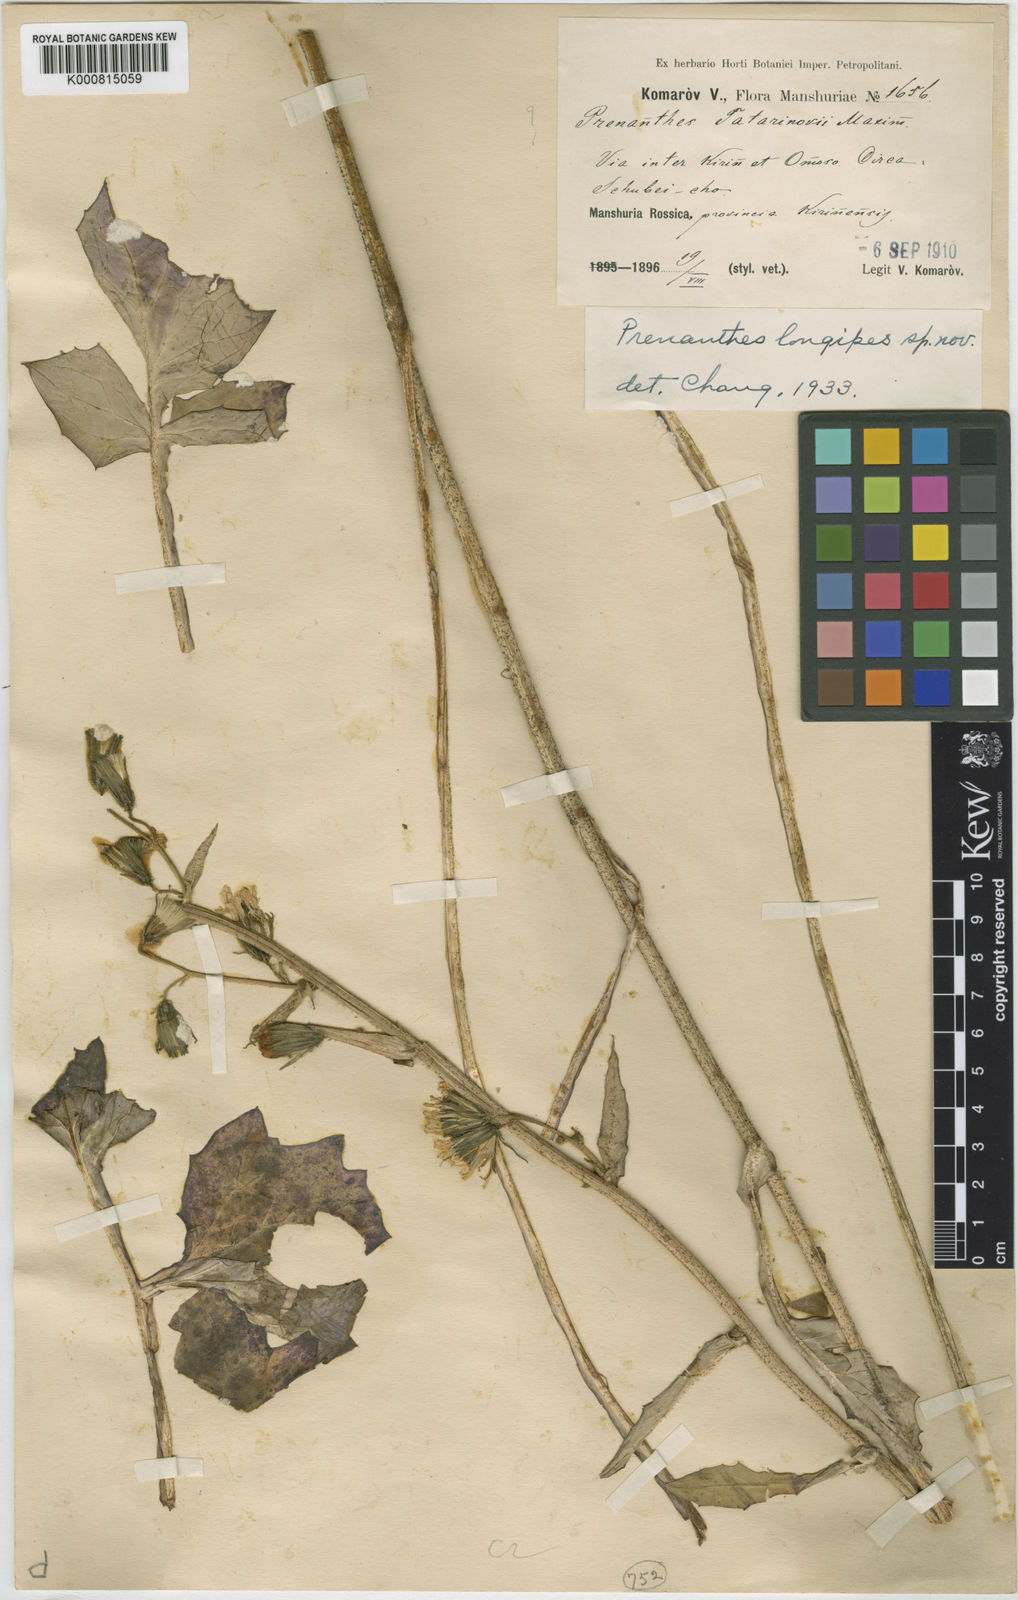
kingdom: Plantae
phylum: Tracheophyta
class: Magnoliopsida
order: Asterales
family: Asteraceae
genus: Prenanthes
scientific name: Prenanthes
